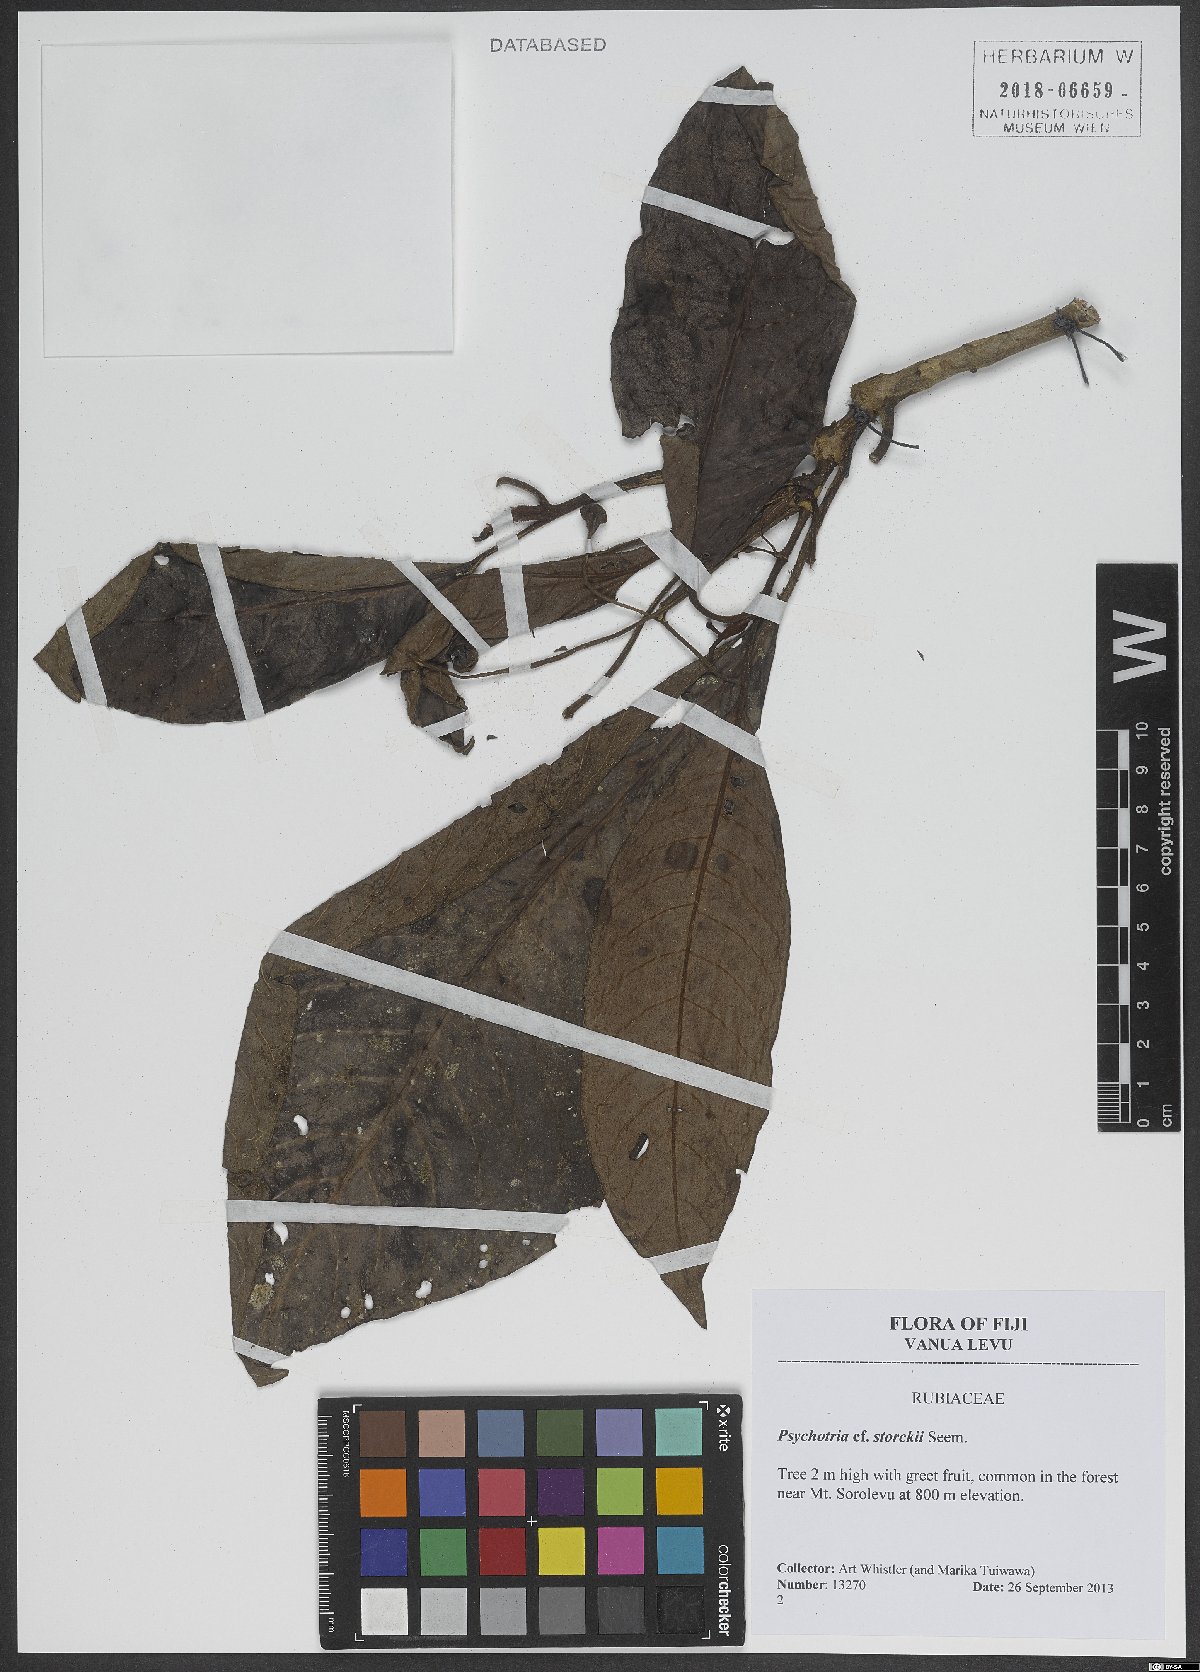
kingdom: Plantae
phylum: Tracheophyta
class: Magnoliopsida
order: Gentianales
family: Rubiaceae
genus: Psychotria
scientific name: Psychotria storckii
